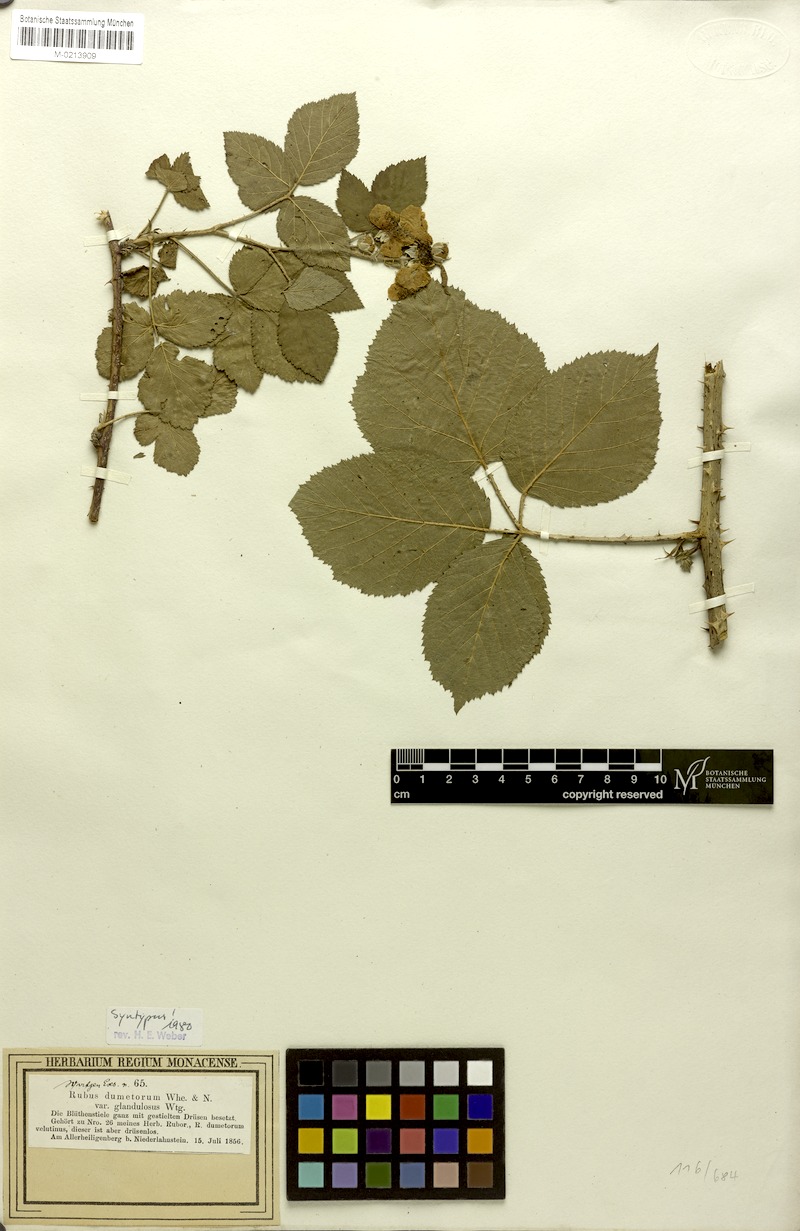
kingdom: Plantae
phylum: Tracheophyta
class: Magnoliopsida
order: Rosales
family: Rosaceae
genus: Rubus
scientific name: Rubus dumetorum
